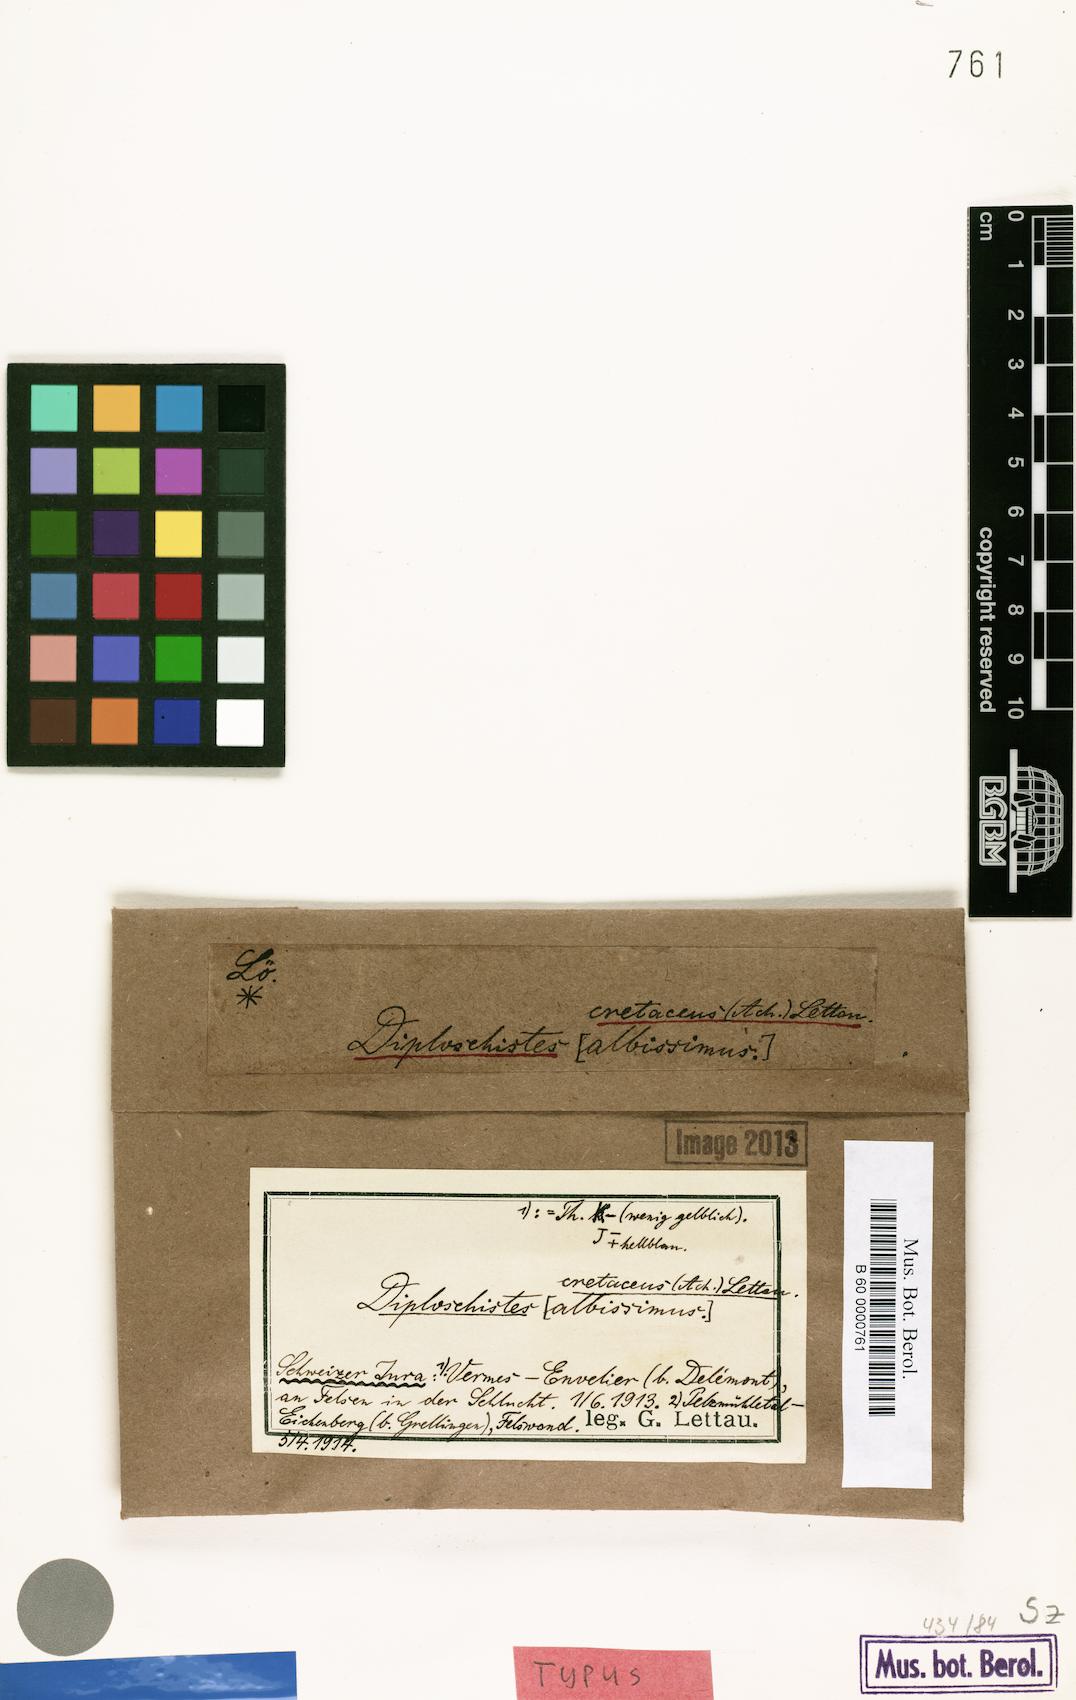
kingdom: Fungi
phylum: Ascomycota
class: Lecanoromycetes
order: Ostropales
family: Graphidaceae
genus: Diploschistes
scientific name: Diploschistes gypsaceus
